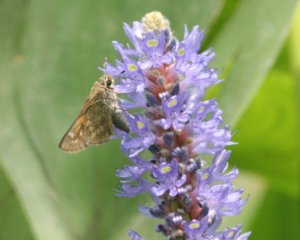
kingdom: Animalia
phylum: Arthropoda
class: Insecta
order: Lepidoptera
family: Hesperiidae
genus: Atalopedes
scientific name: Atalopedes campestris
